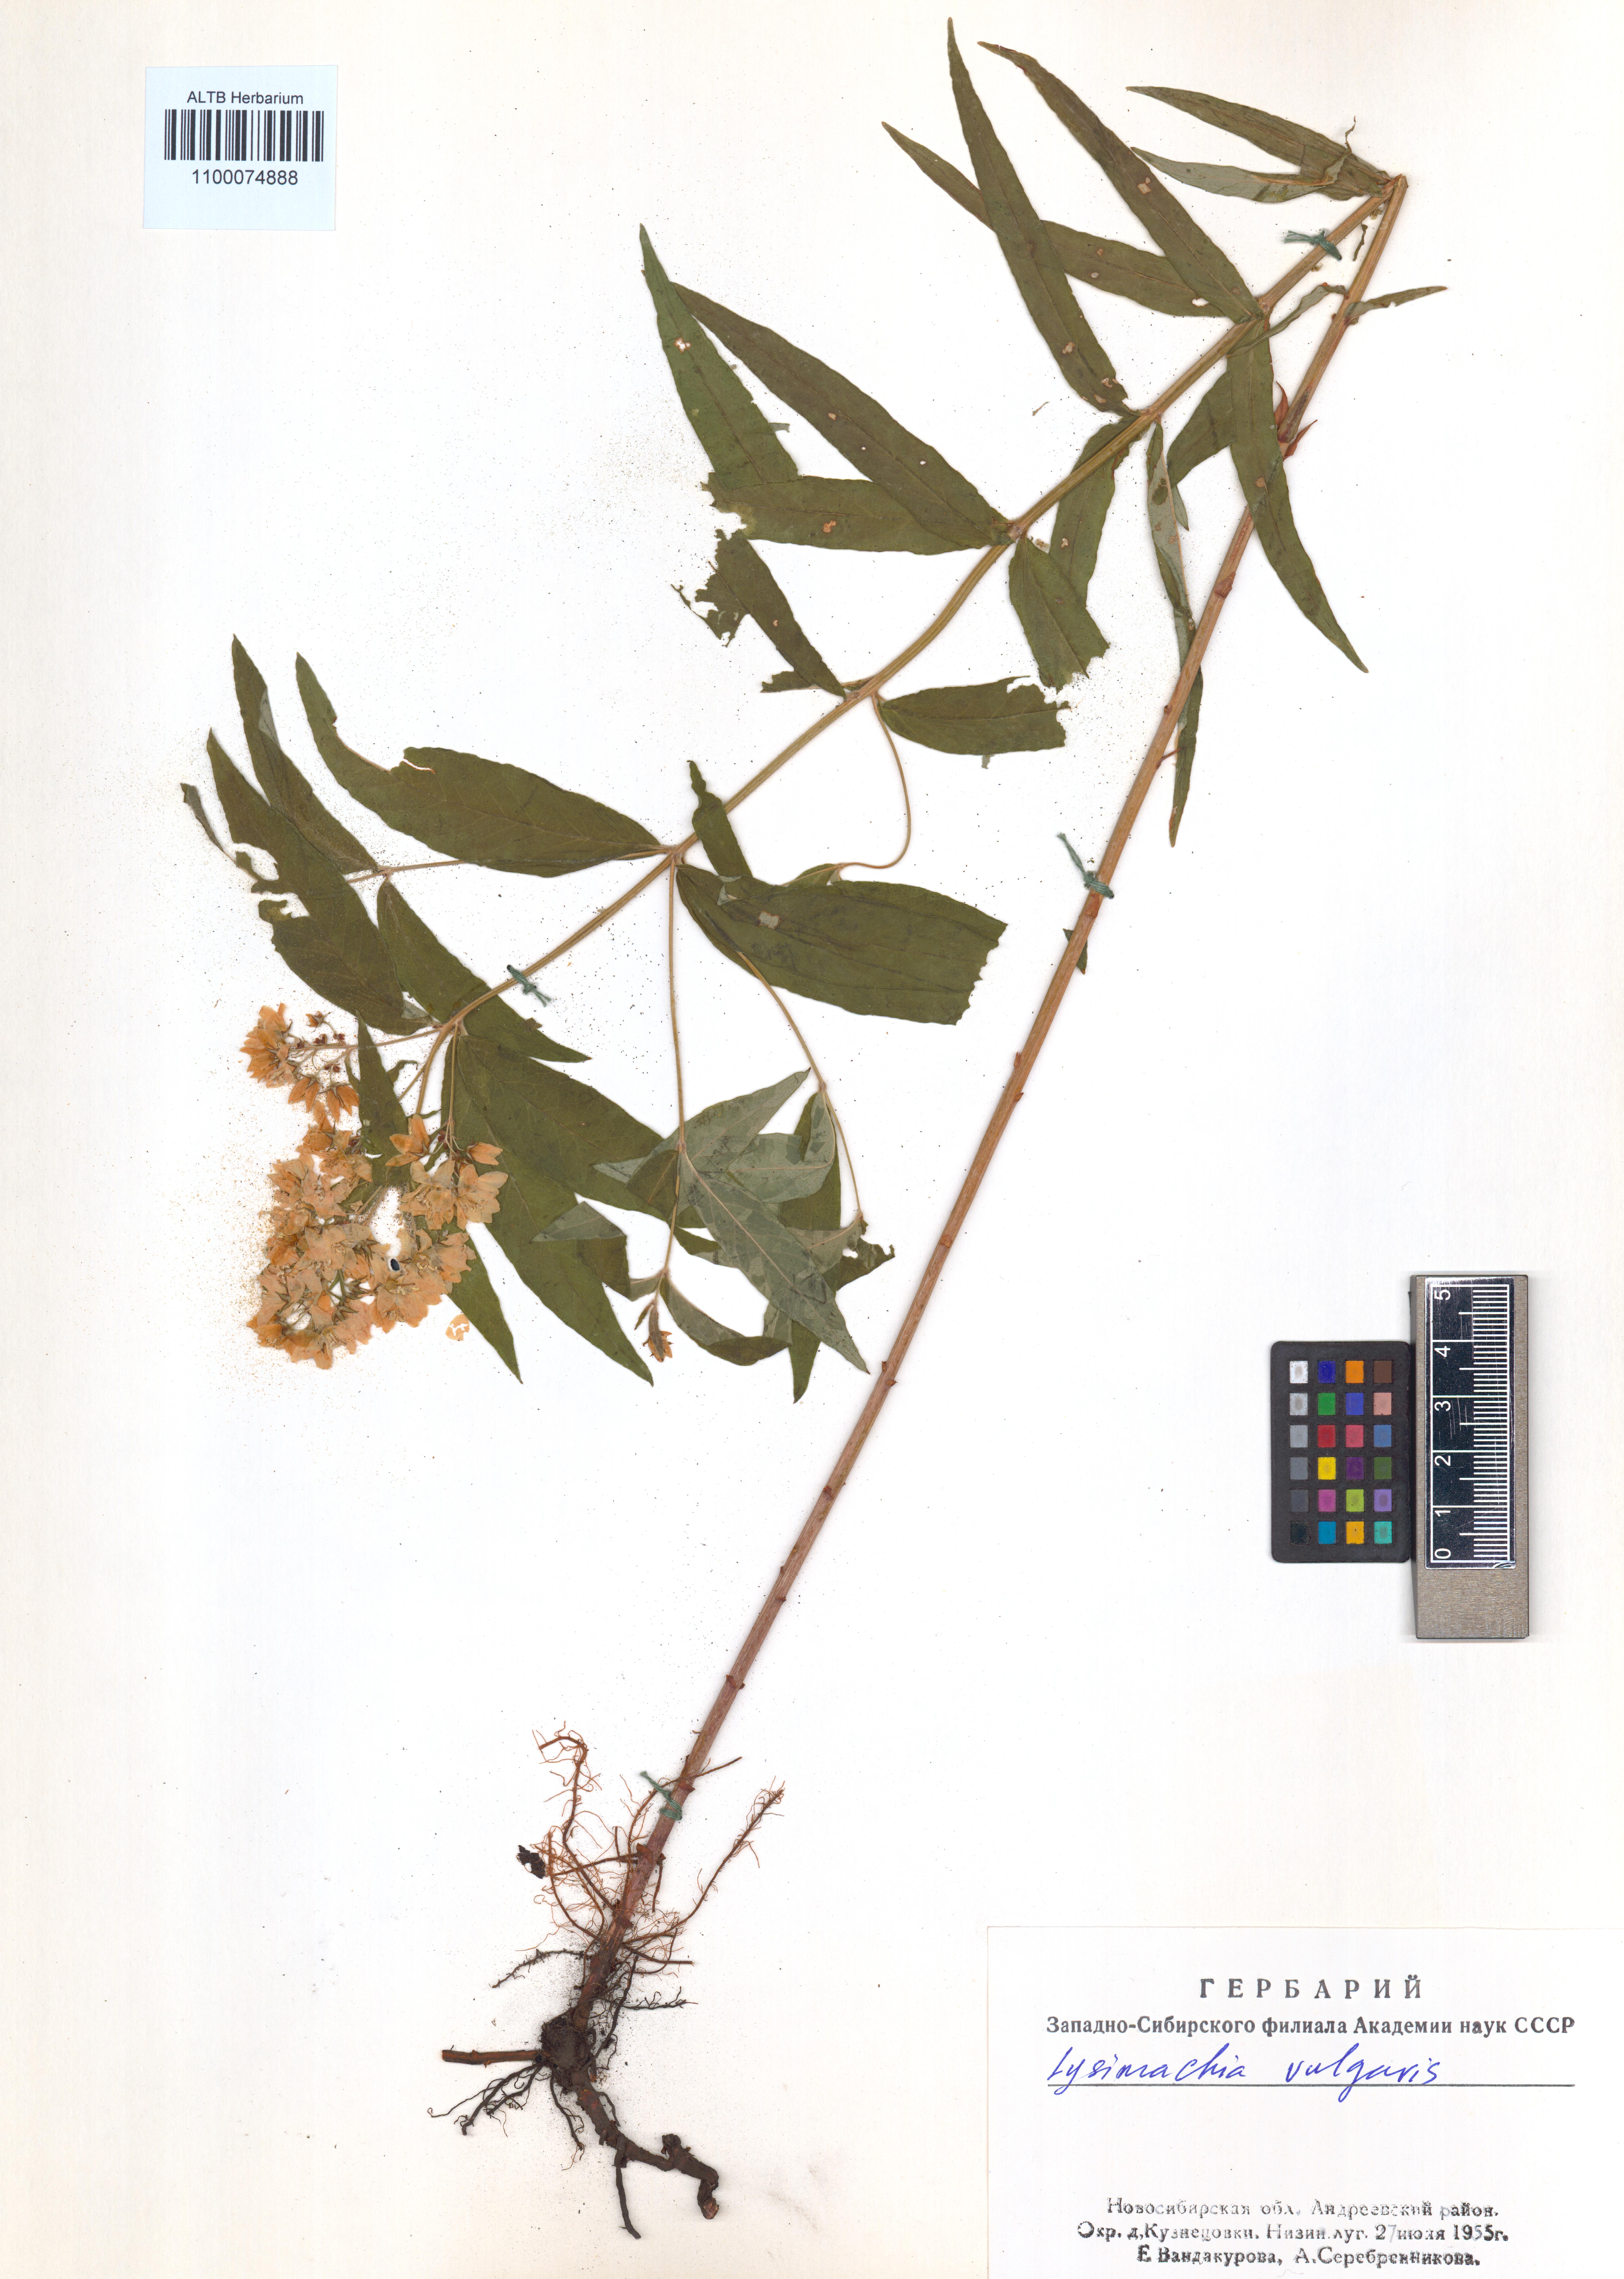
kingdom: Plantae
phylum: Tracheophyta
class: Magnoliopsida
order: Ericales
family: Primulaceae
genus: Lysimachia
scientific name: Lysimachia vulgaris
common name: Yellow loosestrife
